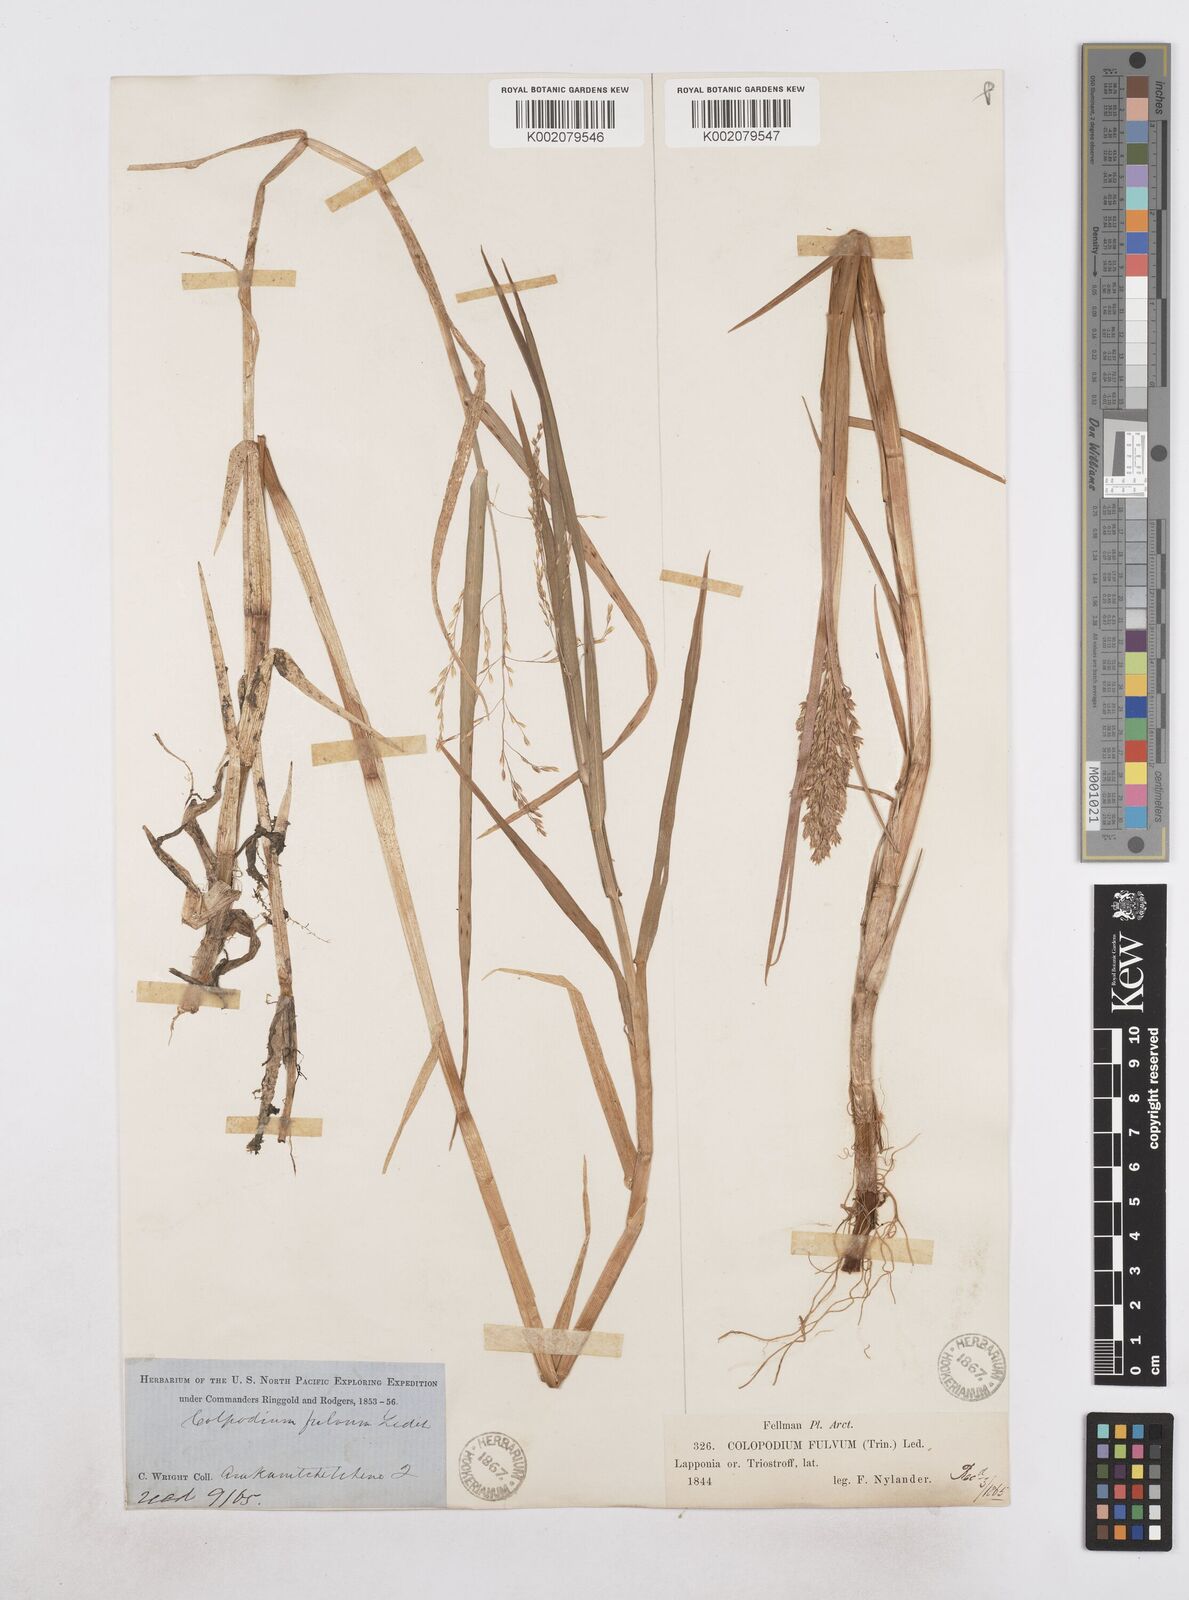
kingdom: Plantae
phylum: Tracheophyta
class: Liliopsida
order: Poales
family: Poaceae
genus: Dupontia
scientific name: Dupontia fulva
